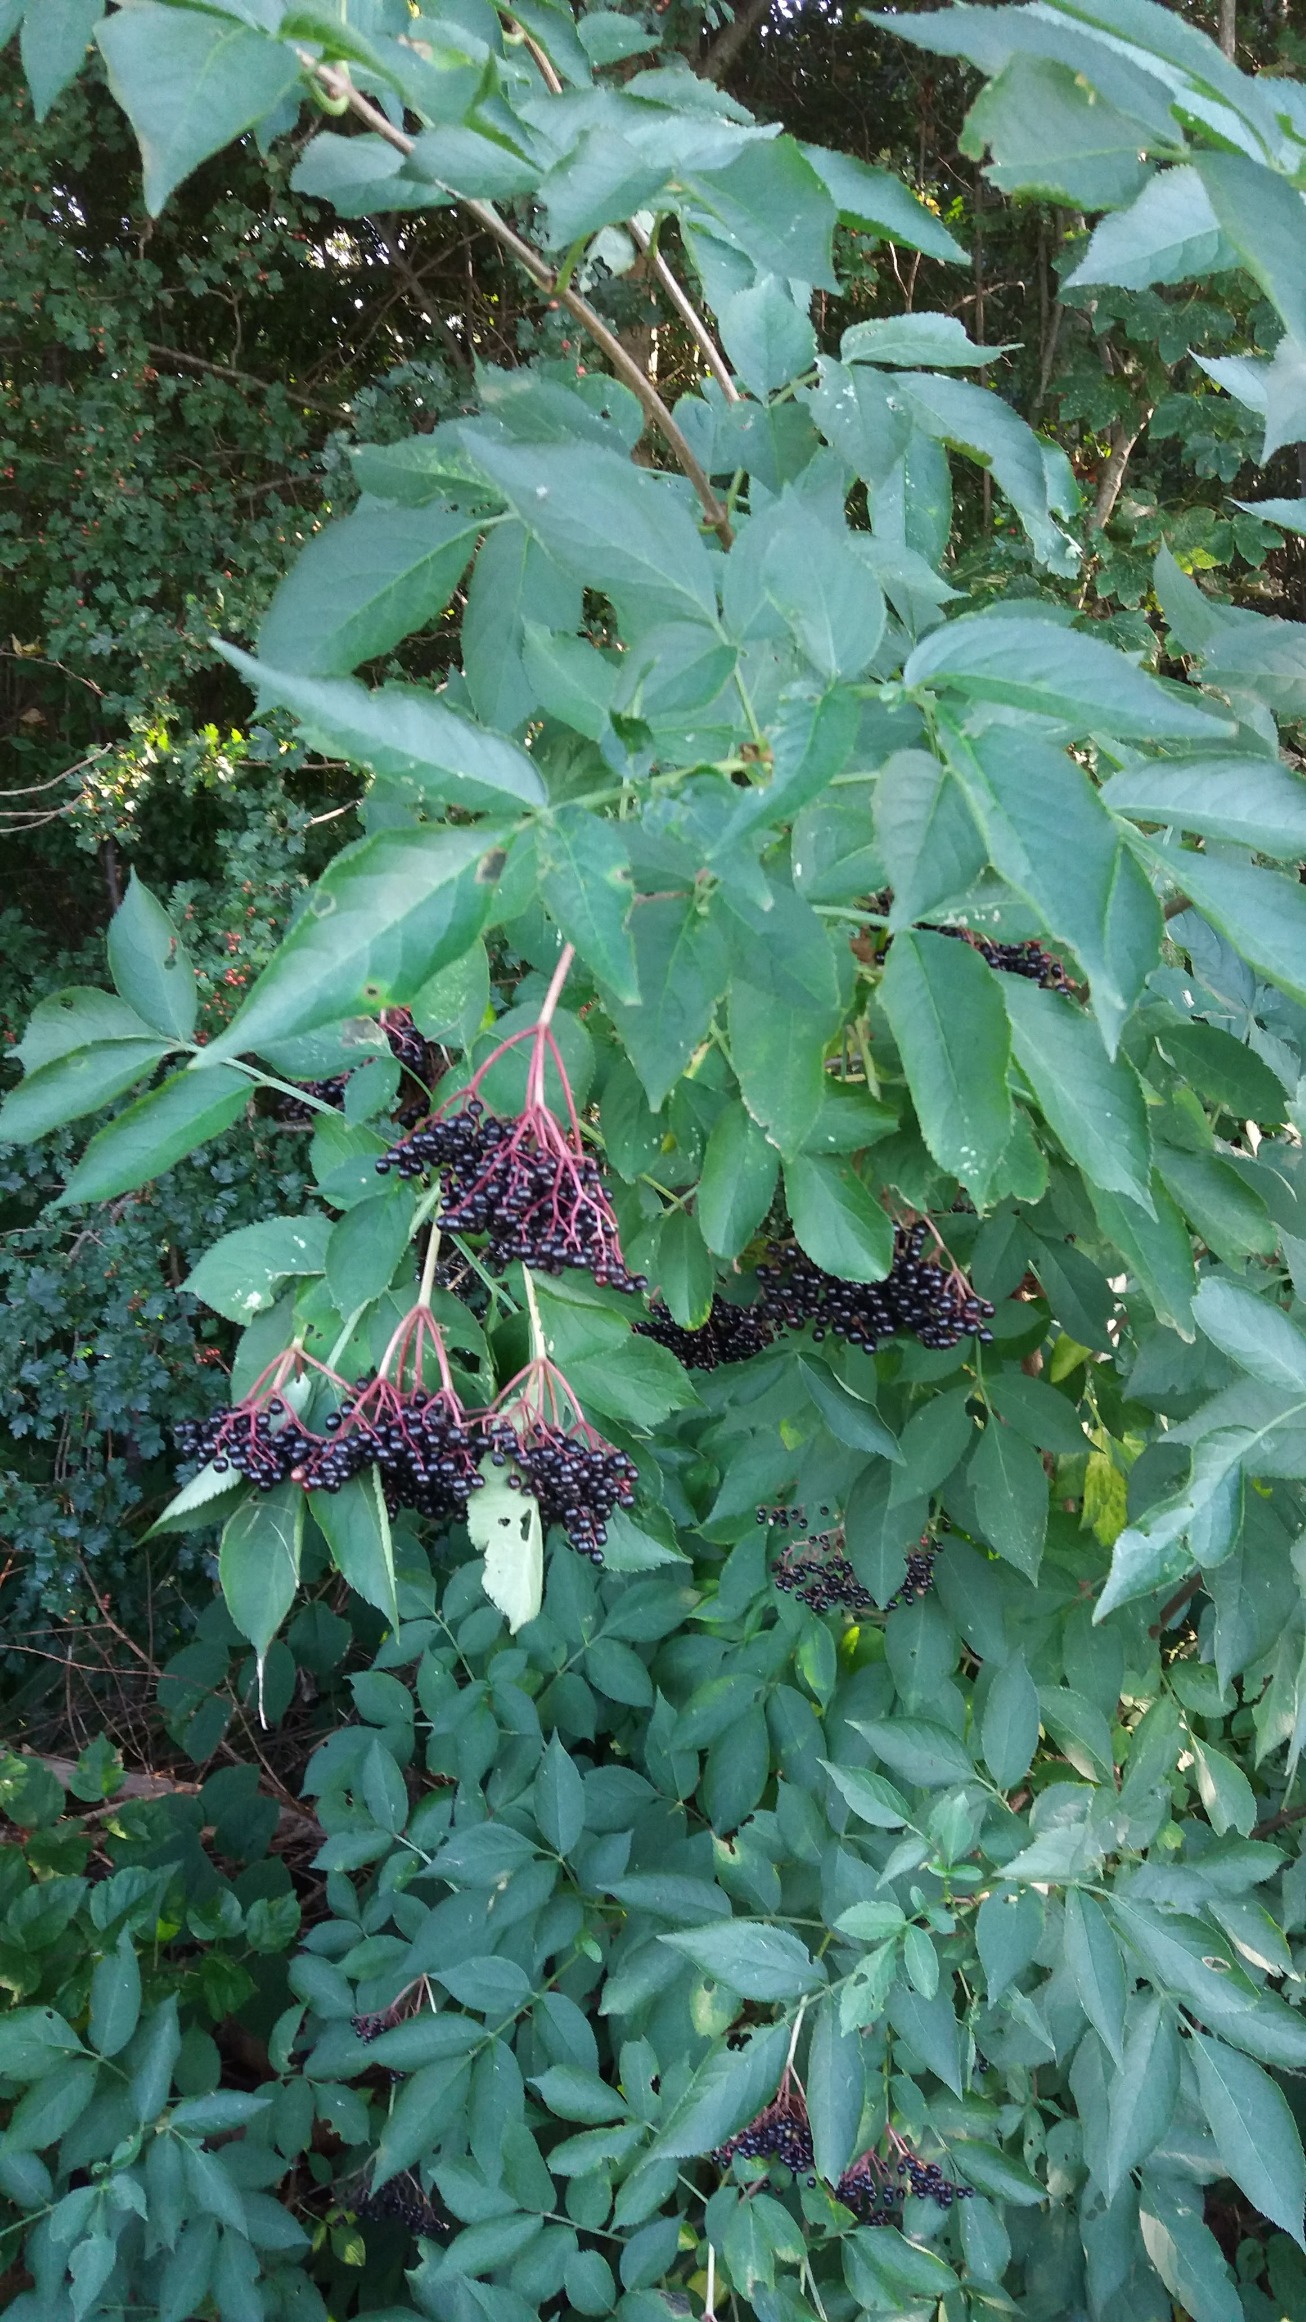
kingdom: Plantae
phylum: Tracheophyta
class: Magnoliopsida
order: Dipsacales
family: Viburnaceae
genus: Sambucus
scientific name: Sambucus nigra
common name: Almindelig hyld
